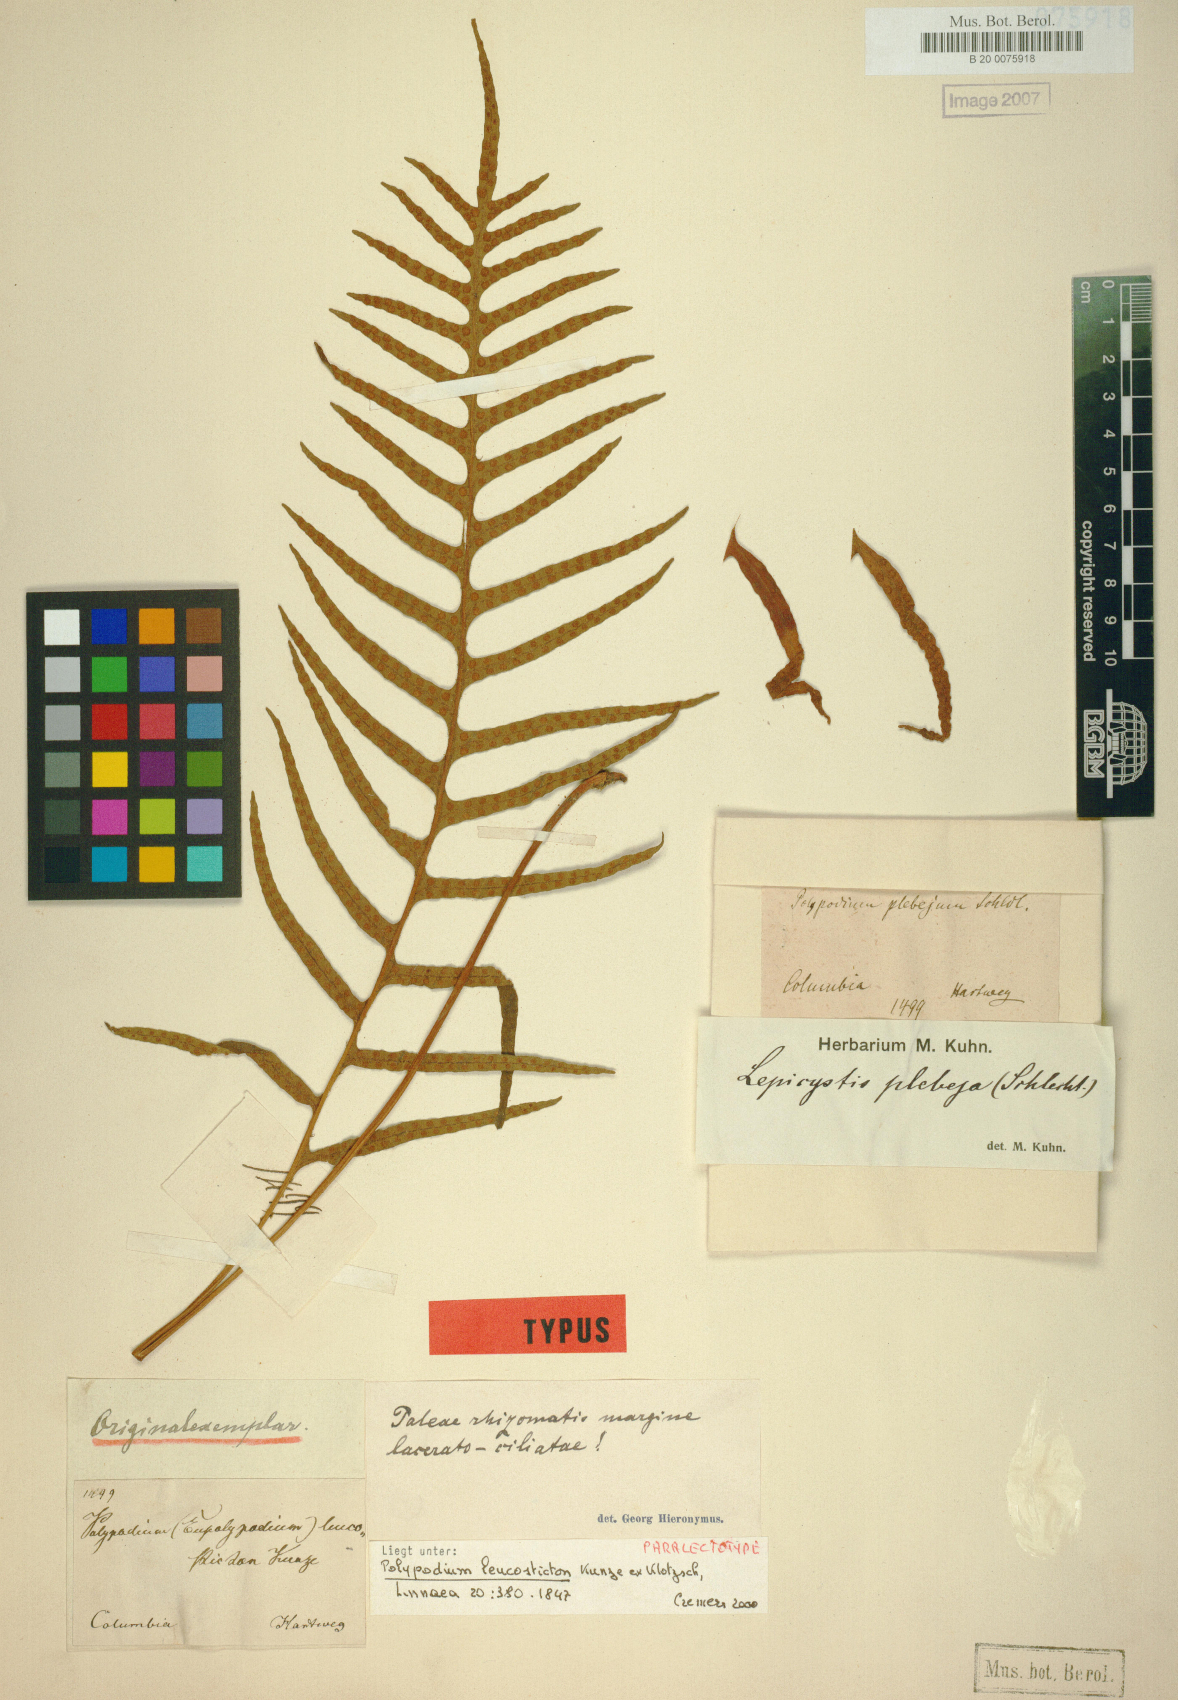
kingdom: Plantae
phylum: Tracheophyta
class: Polypodiopsida
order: Polypodiales
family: Polypodiaceae
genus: Pleopeltis
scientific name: Pleopeltis remota
